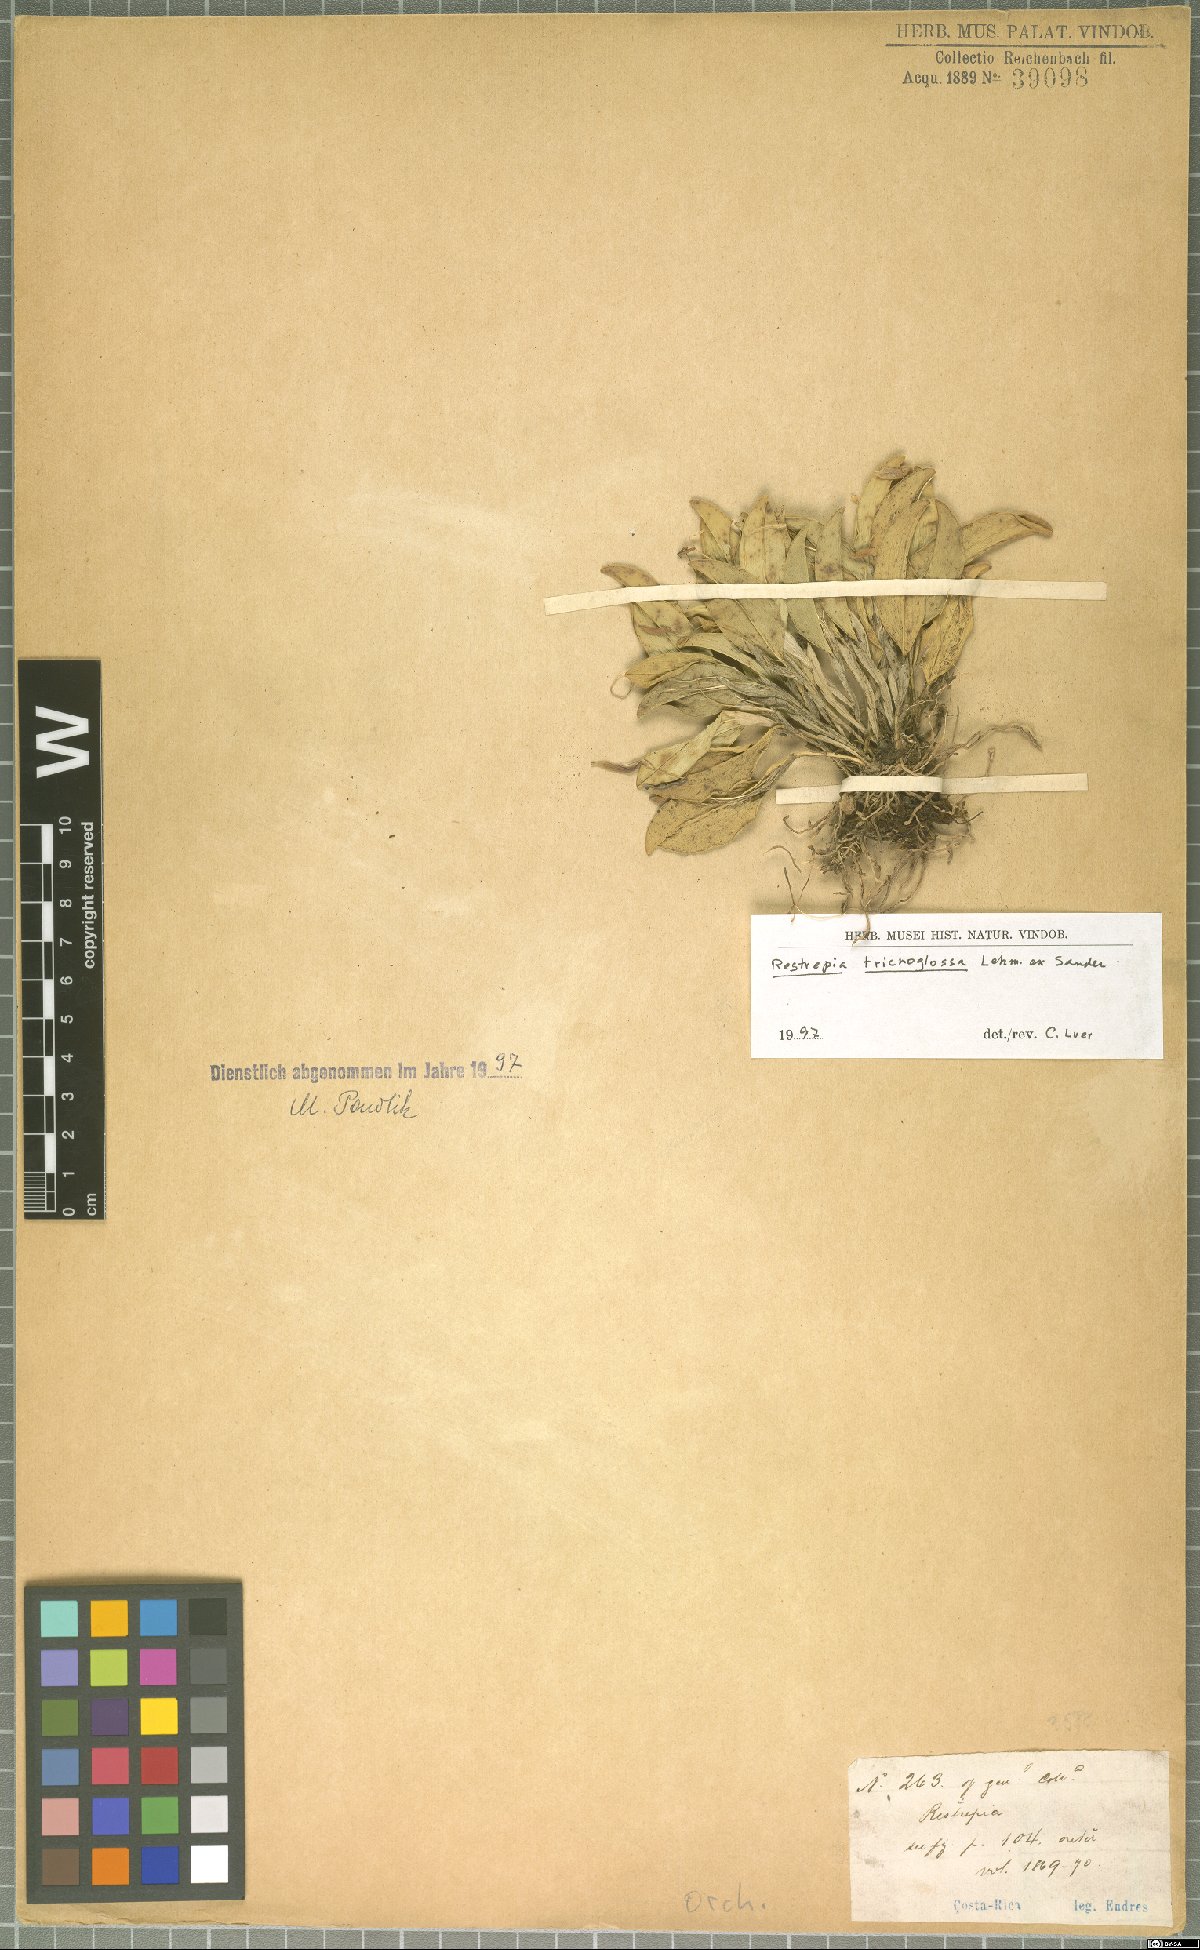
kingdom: Plantae
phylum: Tracheophyta
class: Liliopsida
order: Asparagales
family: Orchidaceae
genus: Restrepia
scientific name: Restrepia trichoglossa
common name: Hairy tongued restrepia
